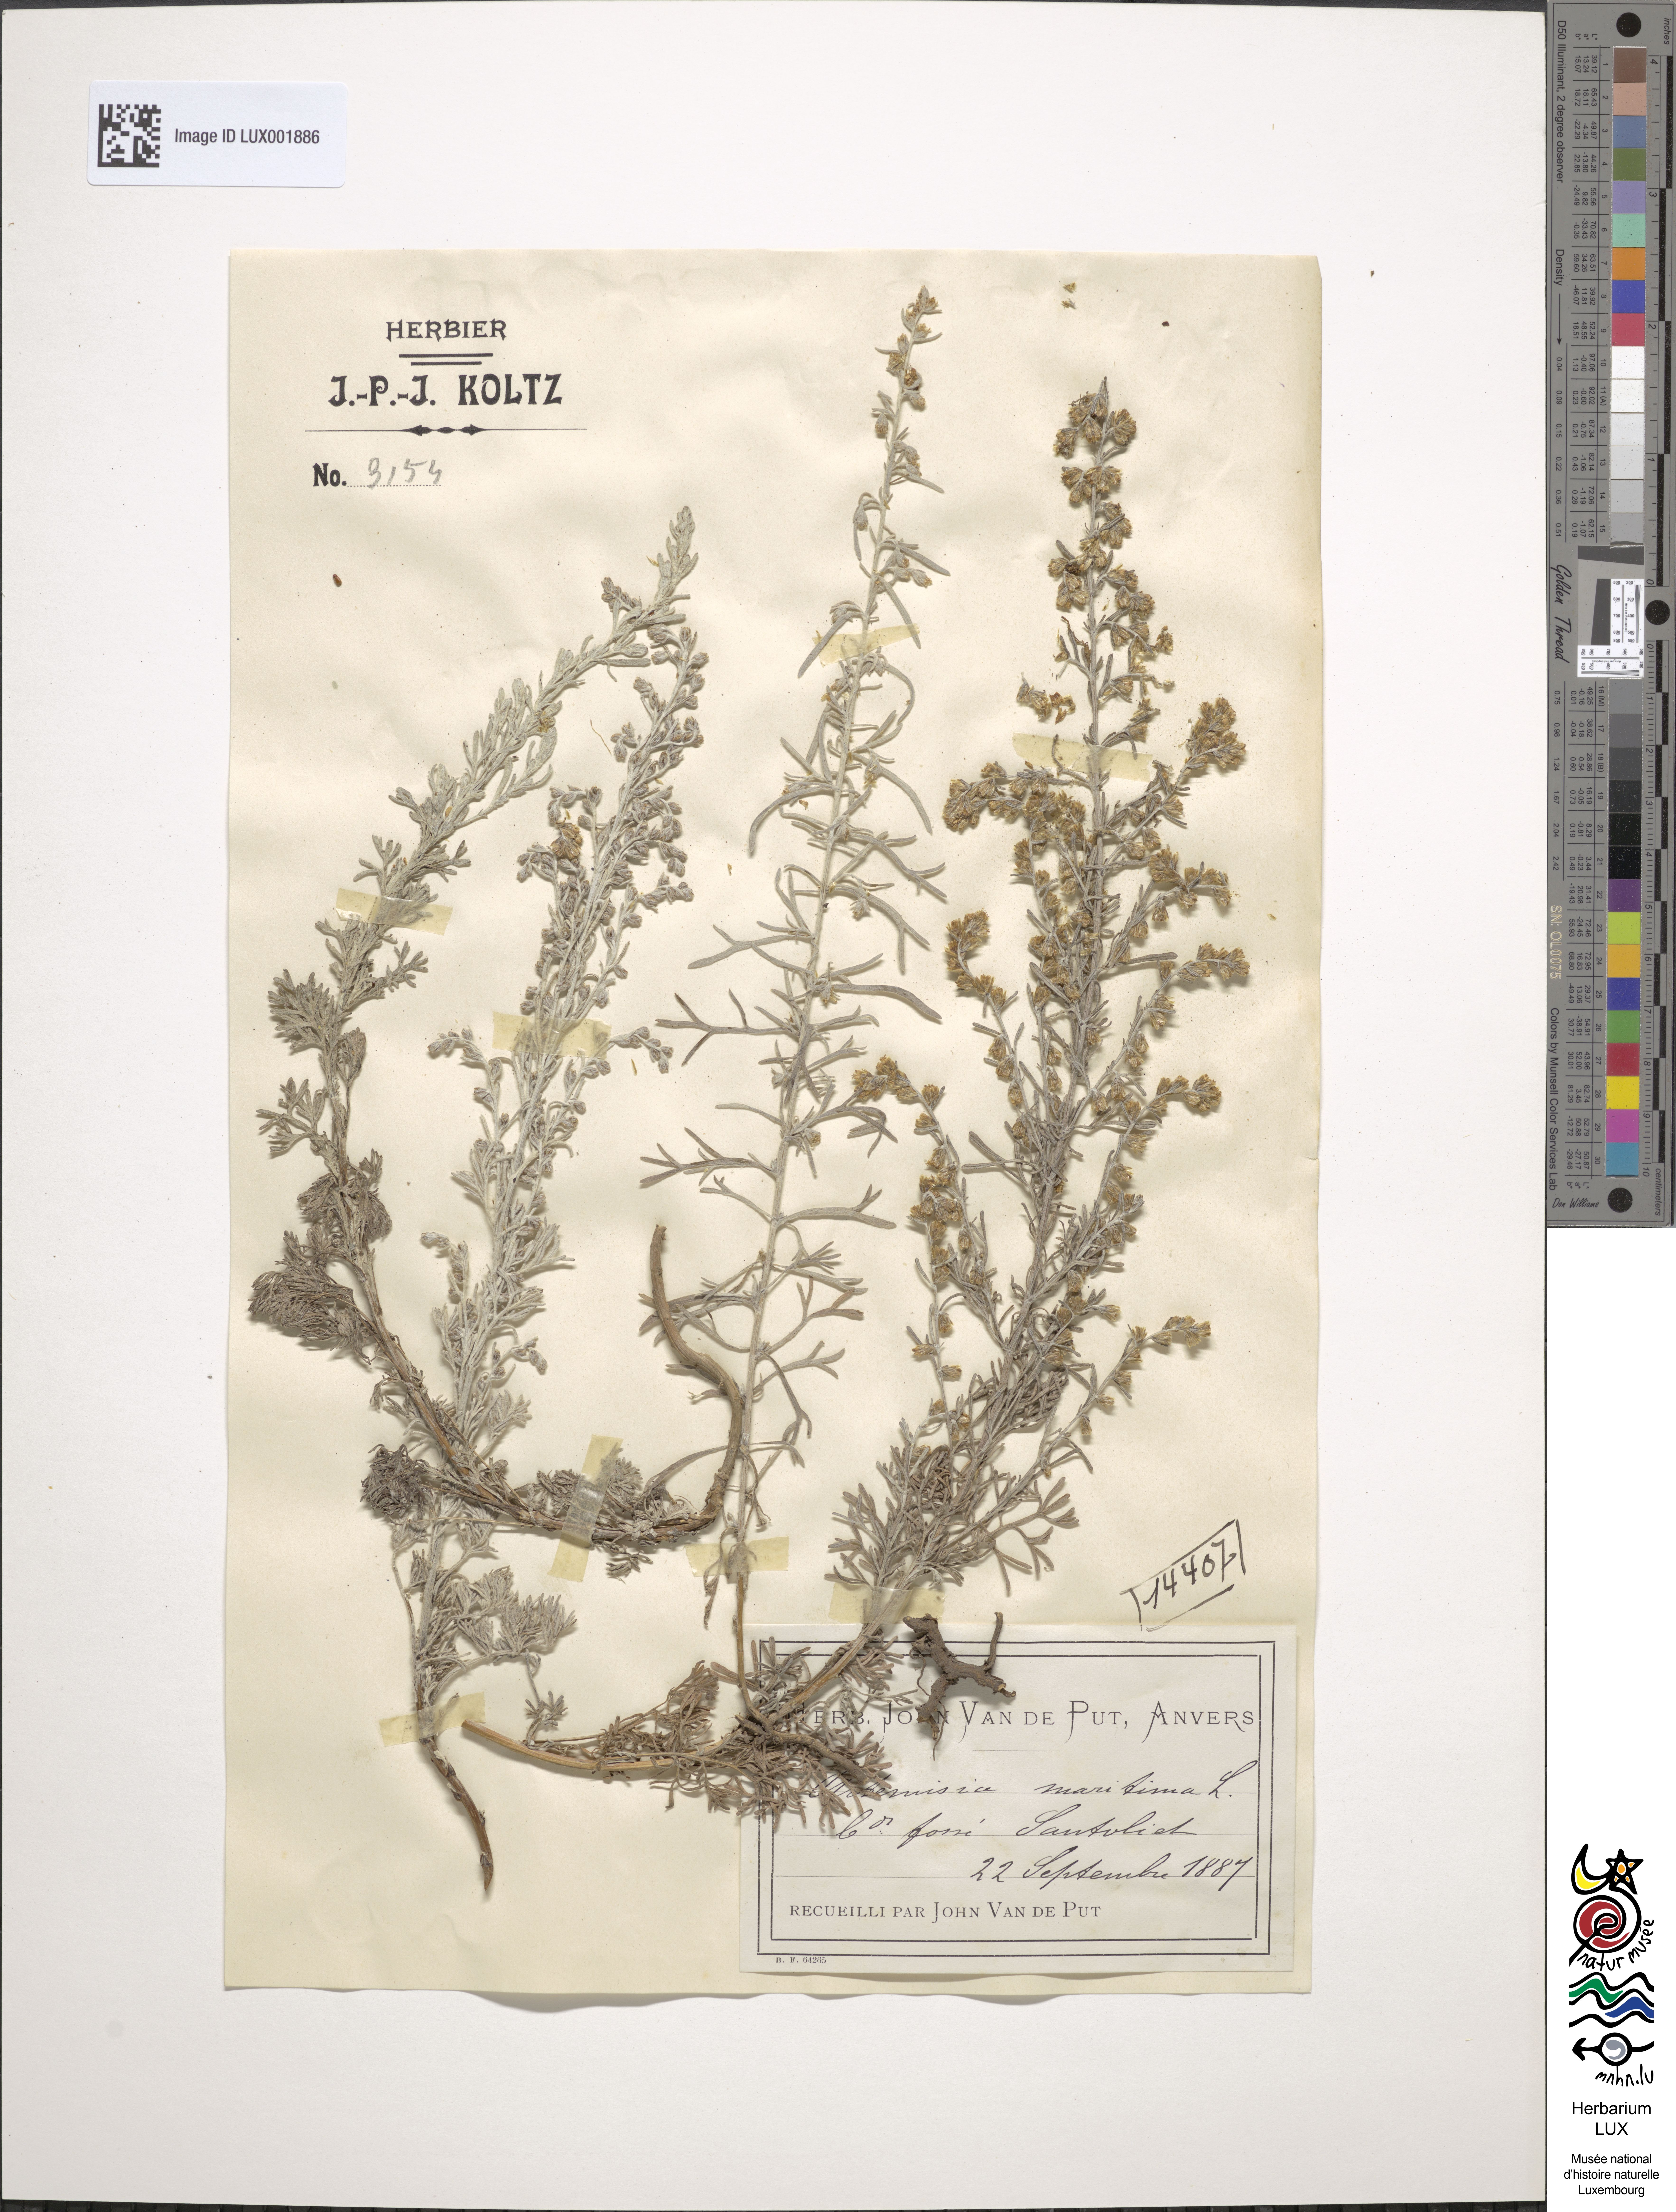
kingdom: Plantae
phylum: Tracheophyta
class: Magnoliopsida
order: Asterales
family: Asteraceae
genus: Artemisia
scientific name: Artemisia maritima
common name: Wormseed
